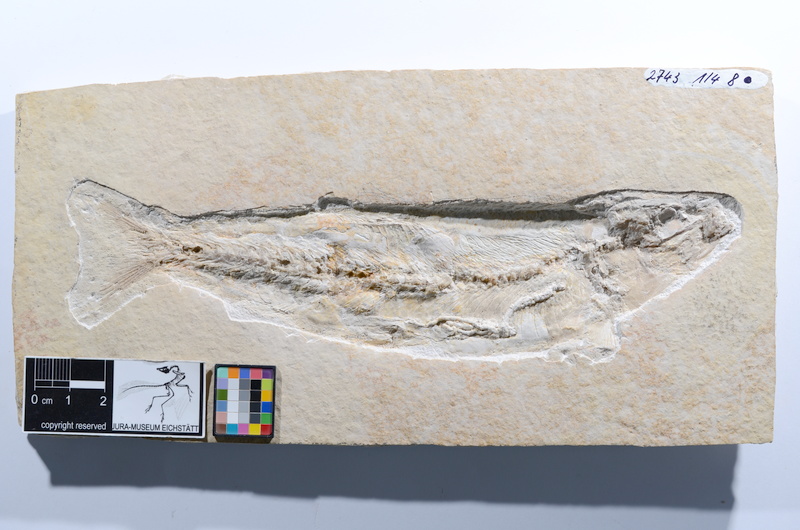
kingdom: Animalia
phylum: Chordata
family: Ascalaboidae
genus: Tharsis
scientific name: Tharsis dubius
